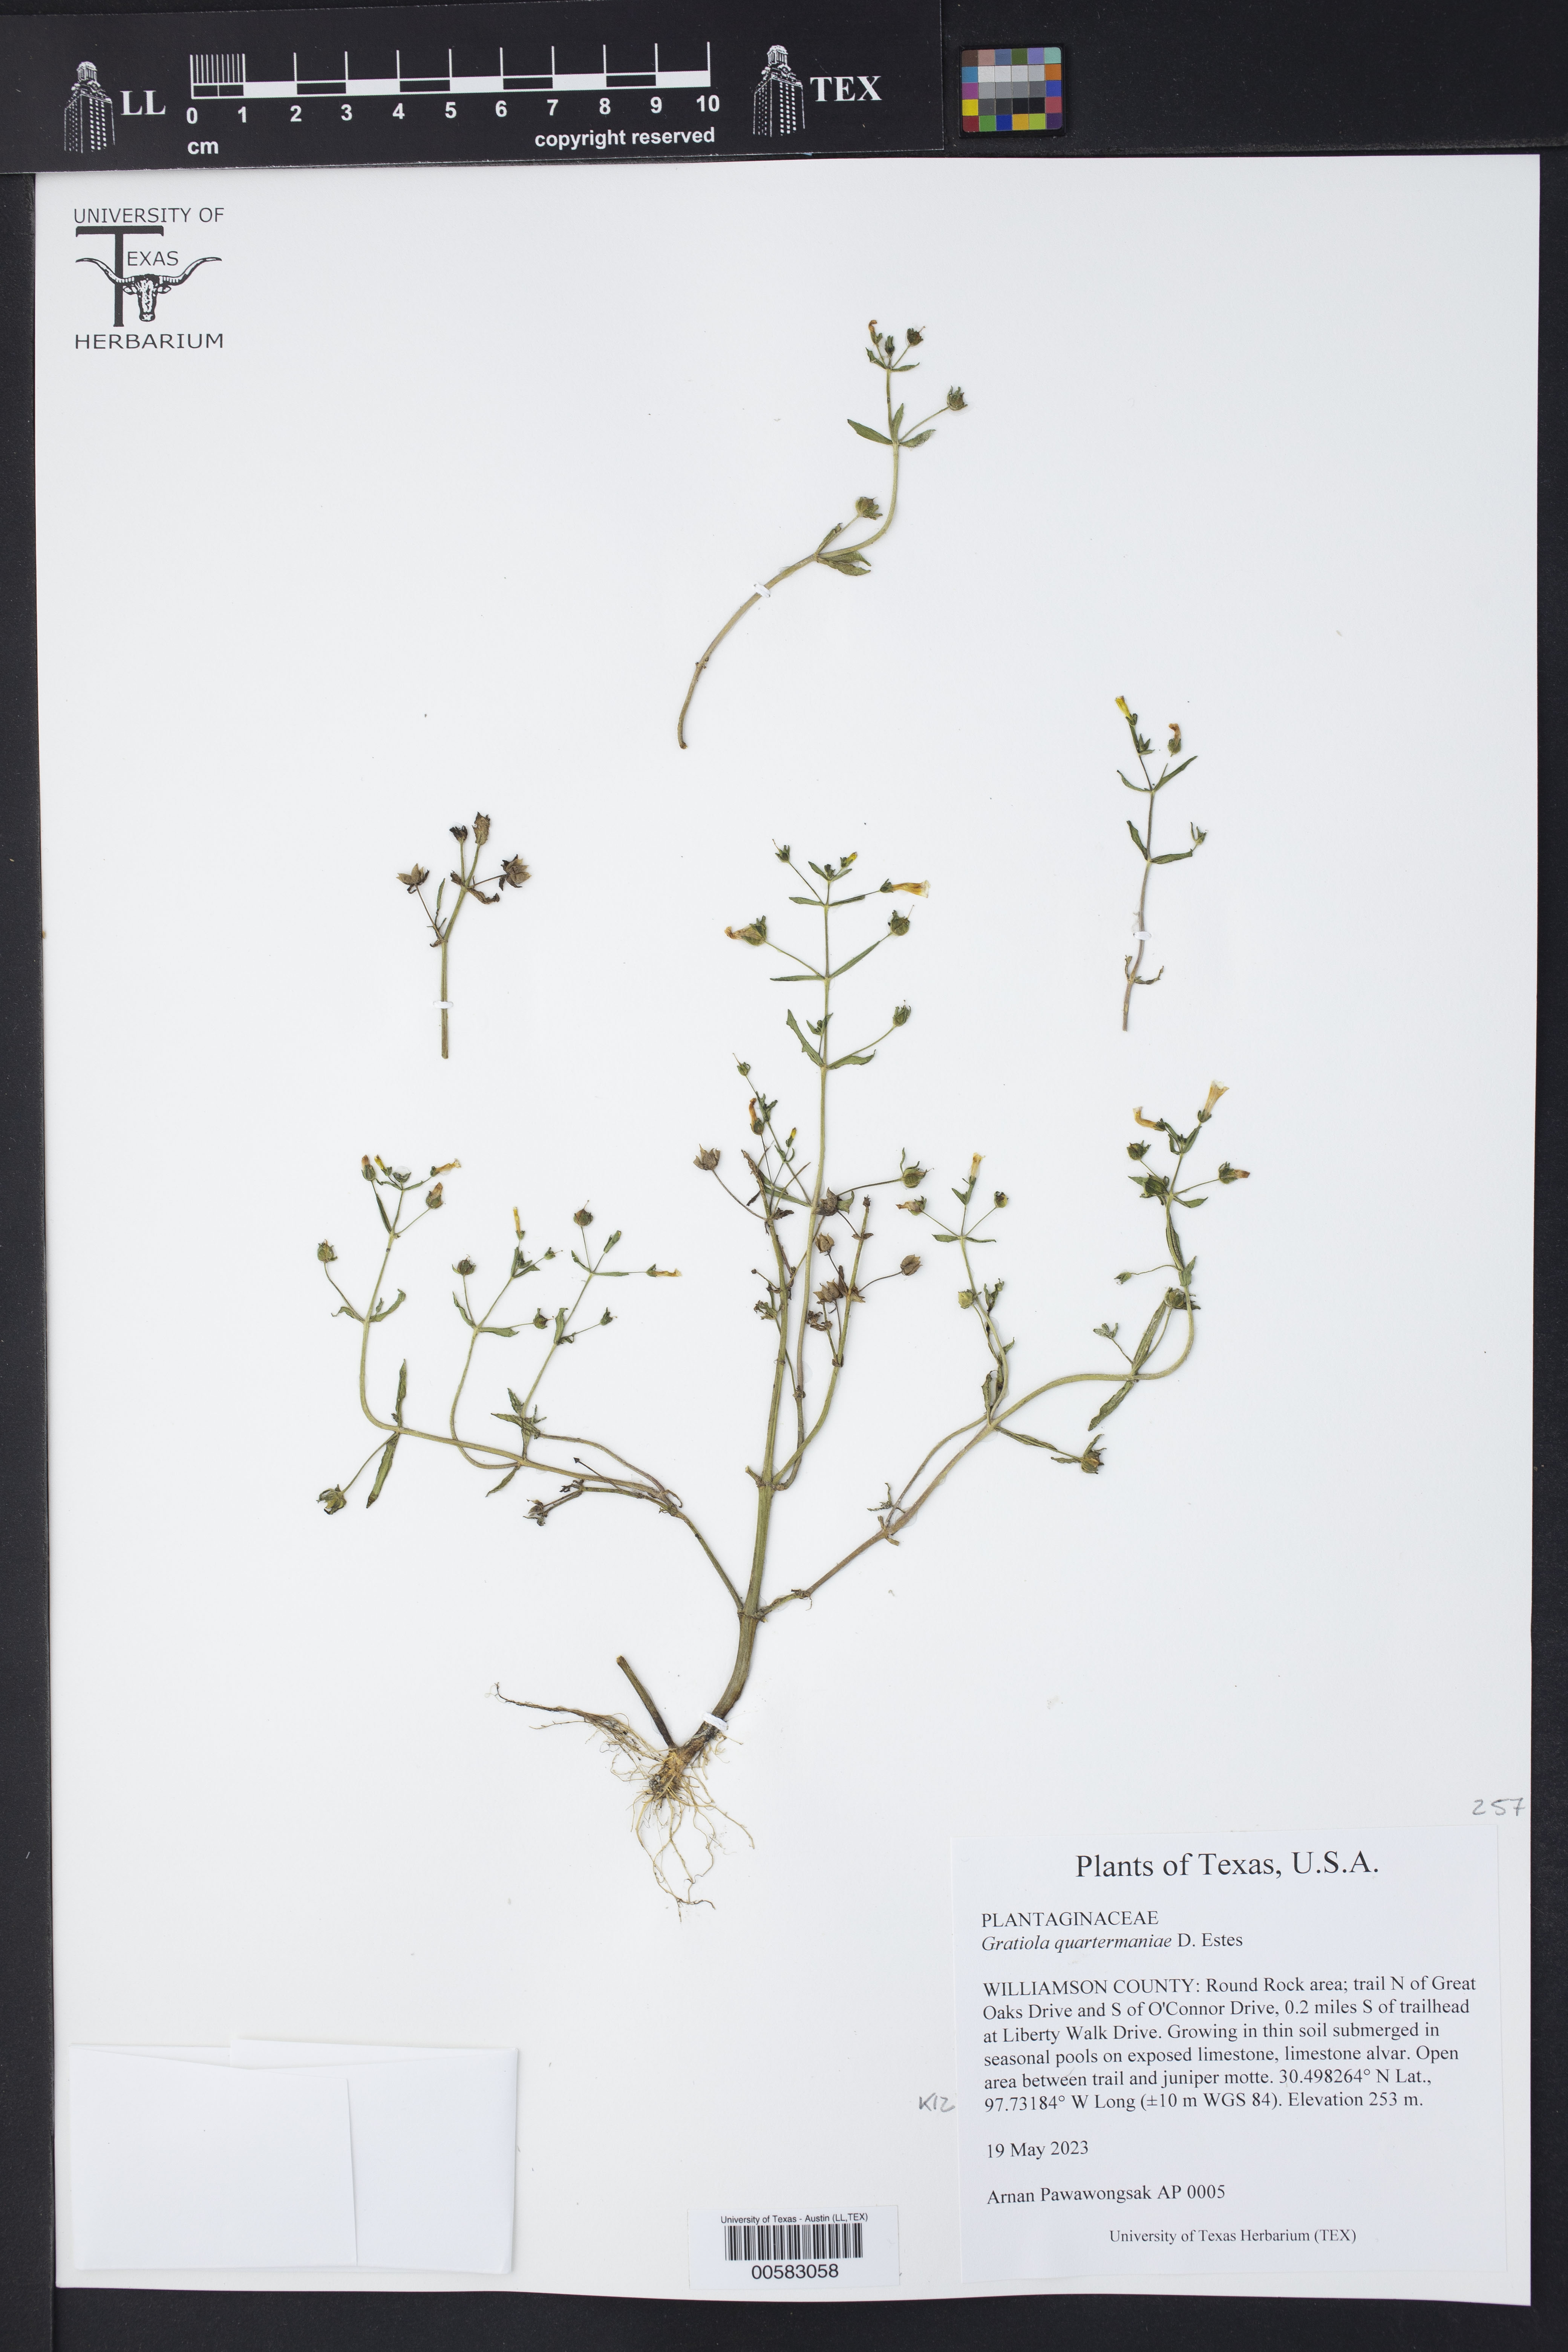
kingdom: Plantae
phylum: Tracheophyta
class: Magnoliopsida
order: Lamiales
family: Plantaginaceae
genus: Gratiola
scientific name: Gratiola quartermaniae
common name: Quarterman's hedge-hyssop
